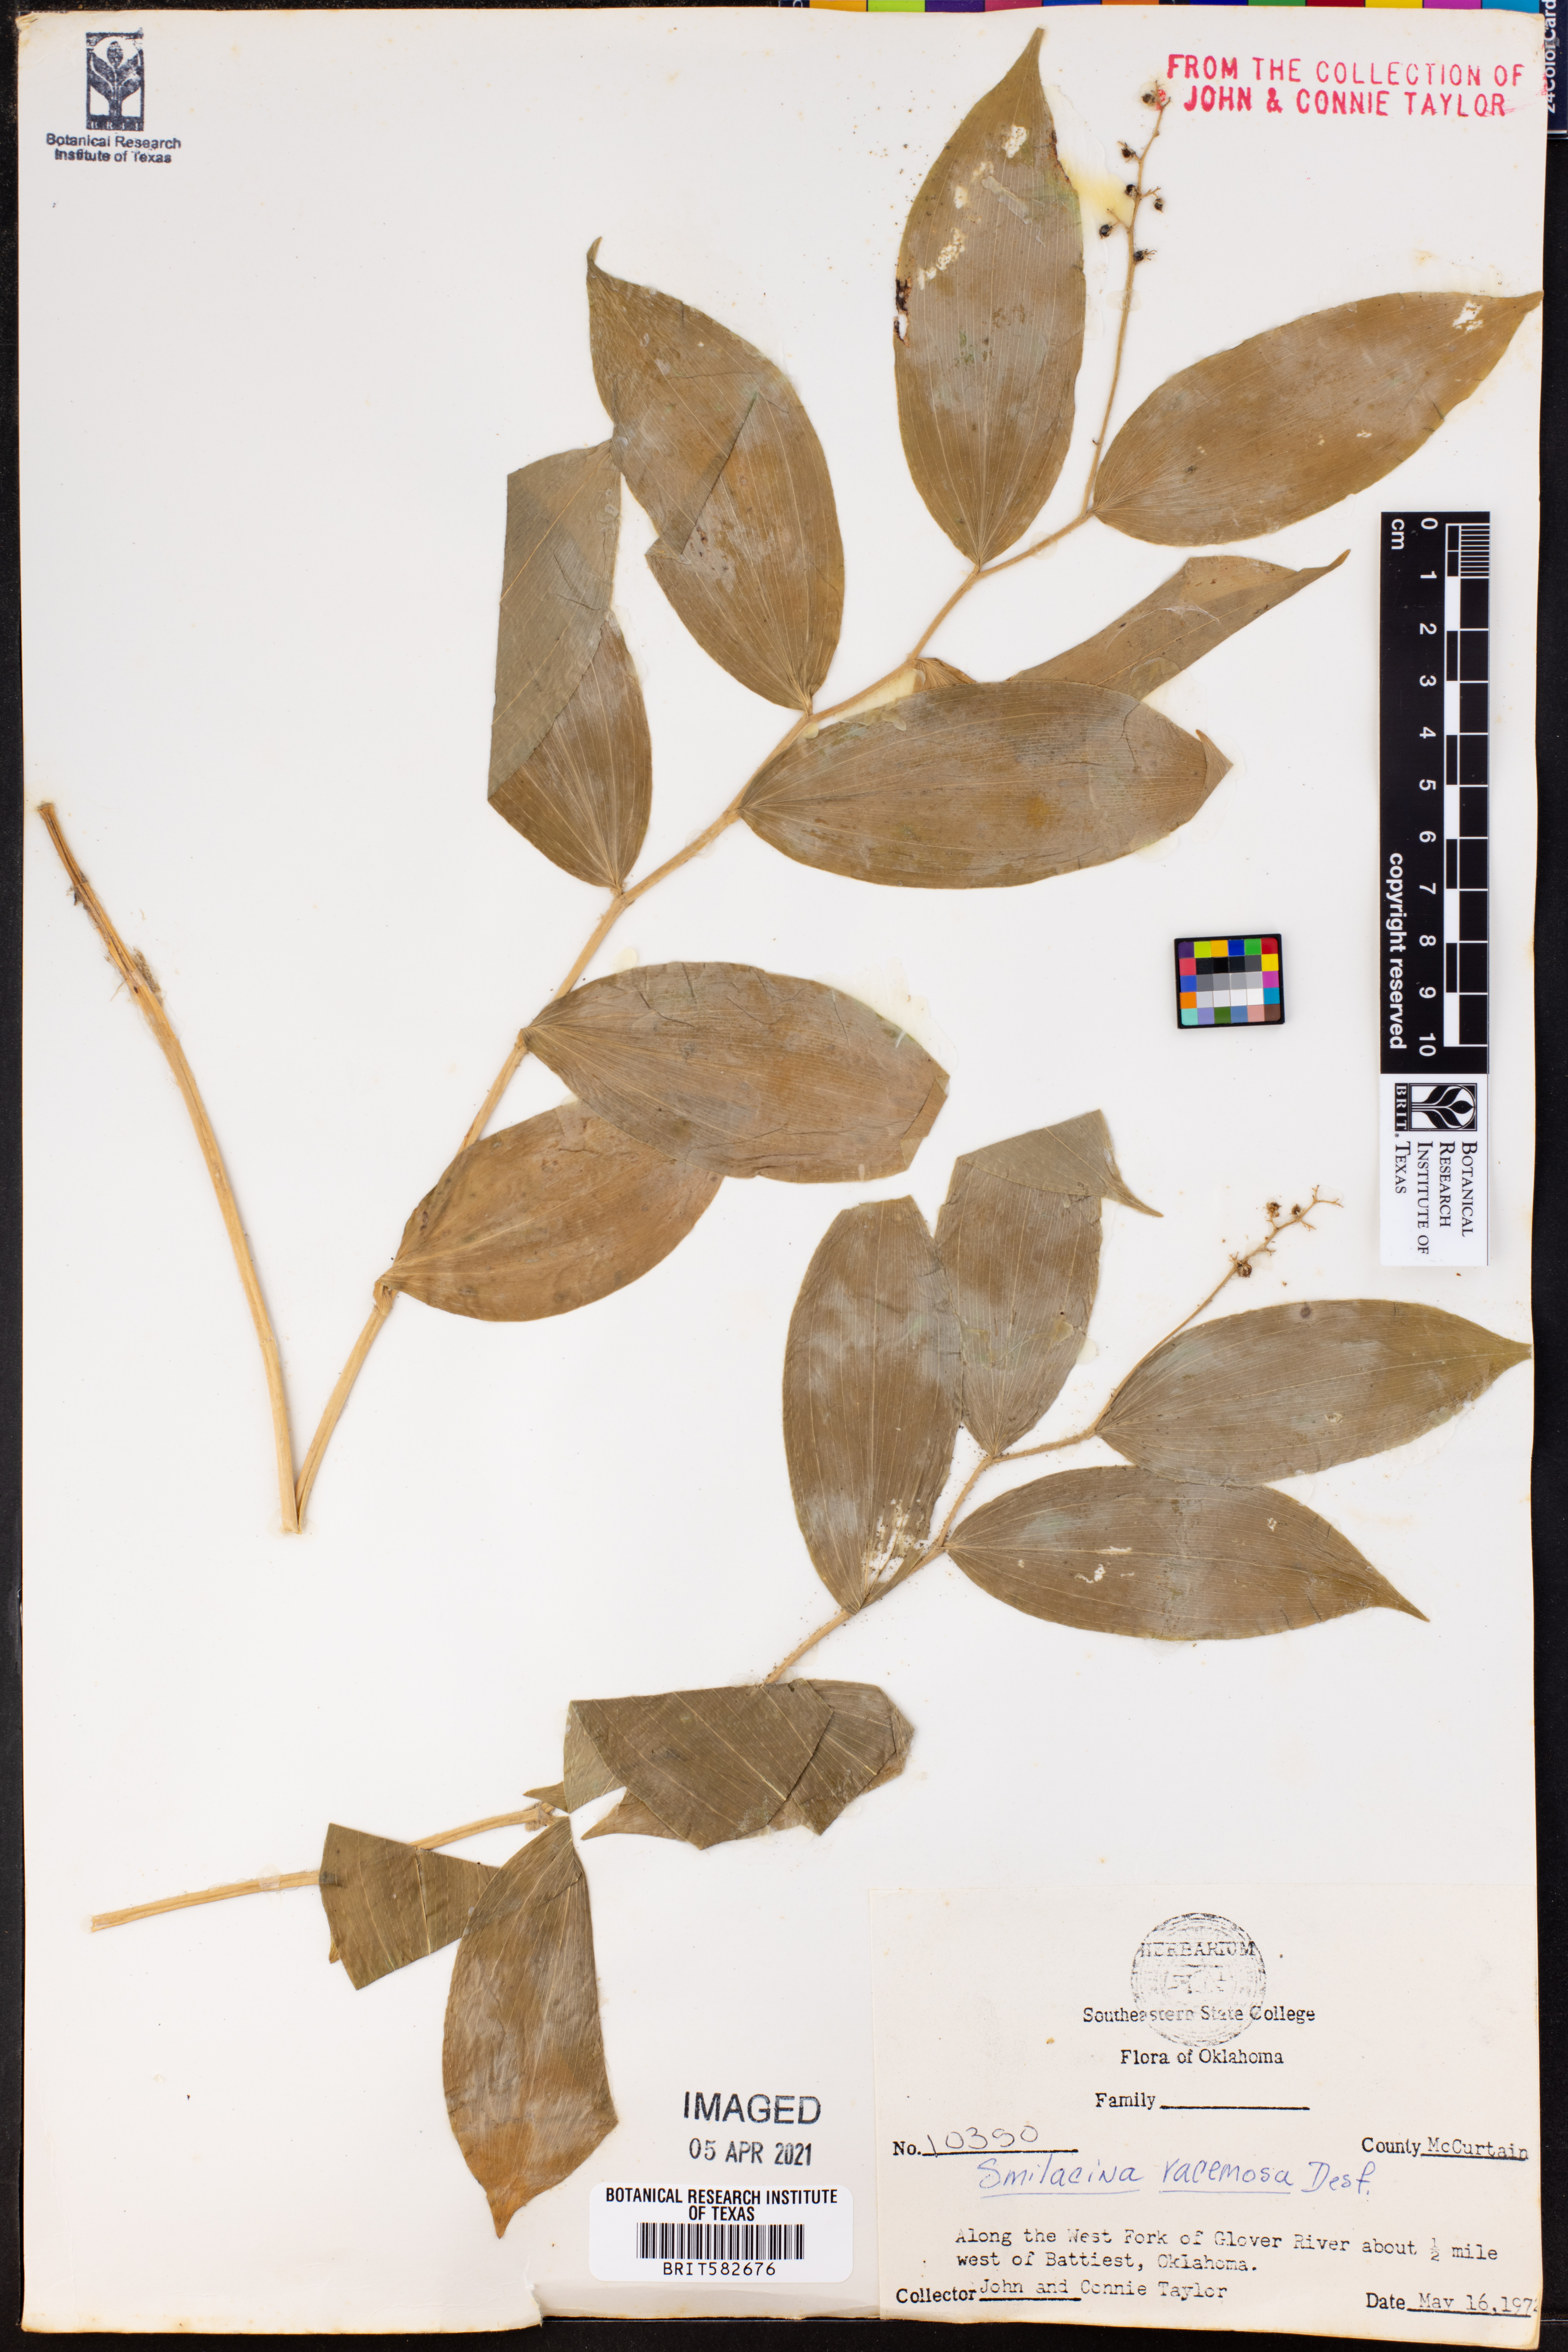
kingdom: Plantae
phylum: Tracheophyta
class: Liliopsida
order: Asparagales
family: Asparagaceae
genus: Maianthemum
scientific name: Maianthemum racemosum
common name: False spikenard
